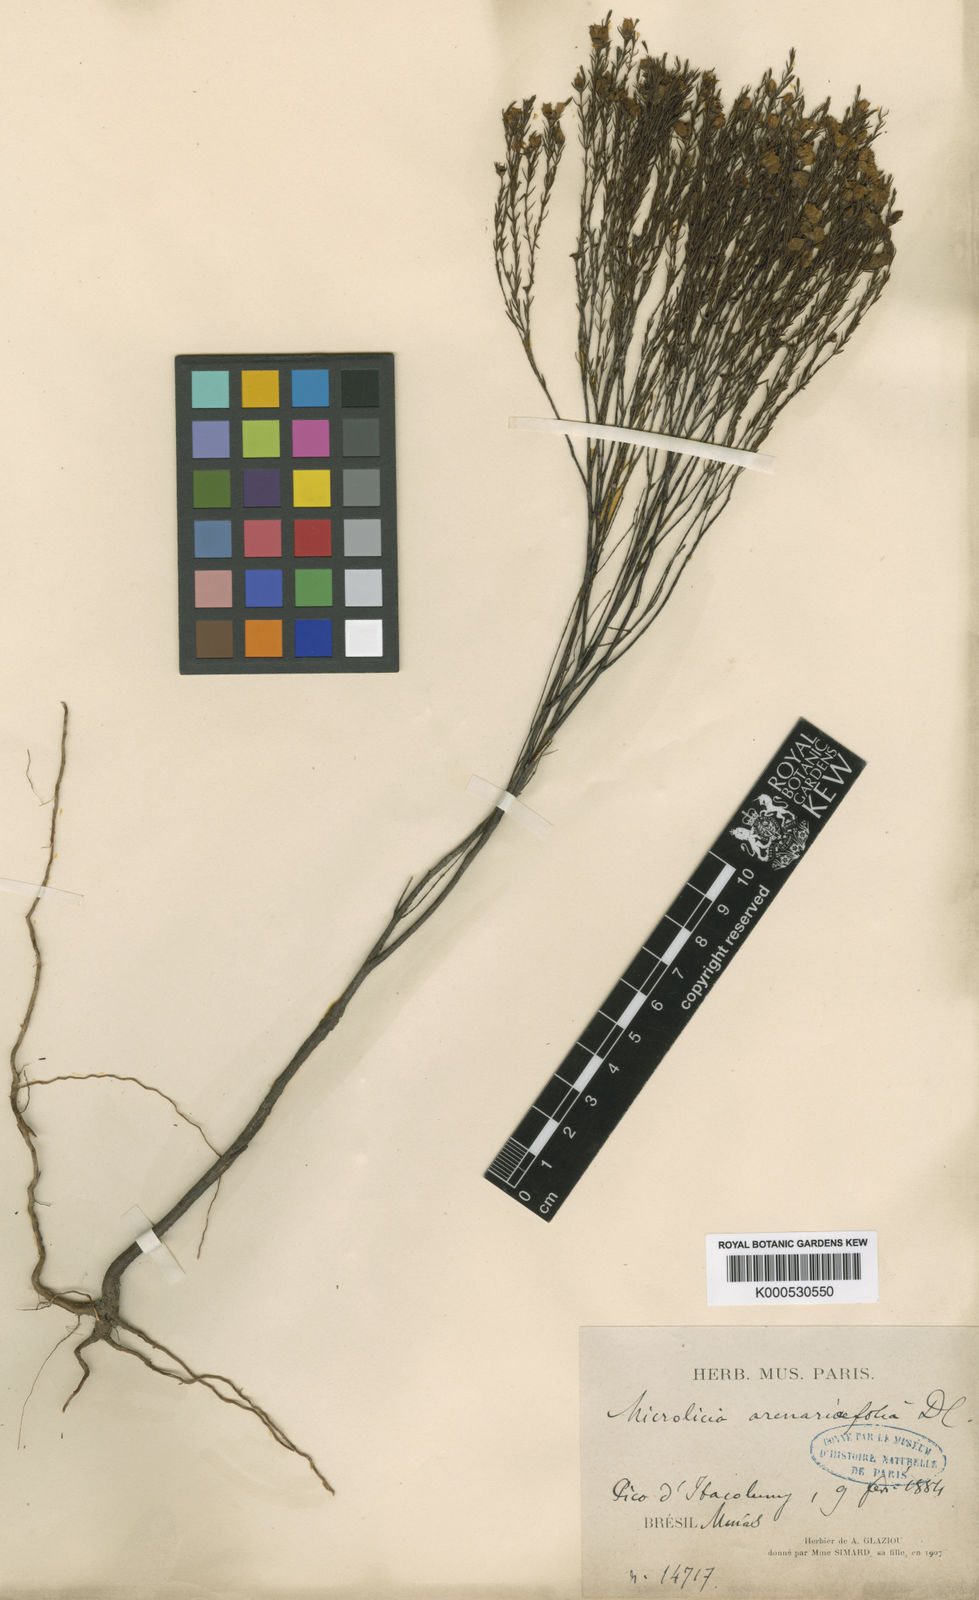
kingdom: Plantae
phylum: Tracheophyta
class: Magnoliopsida
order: Myrtales
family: Melastomataceae
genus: Microlicia
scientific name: Microlicia
